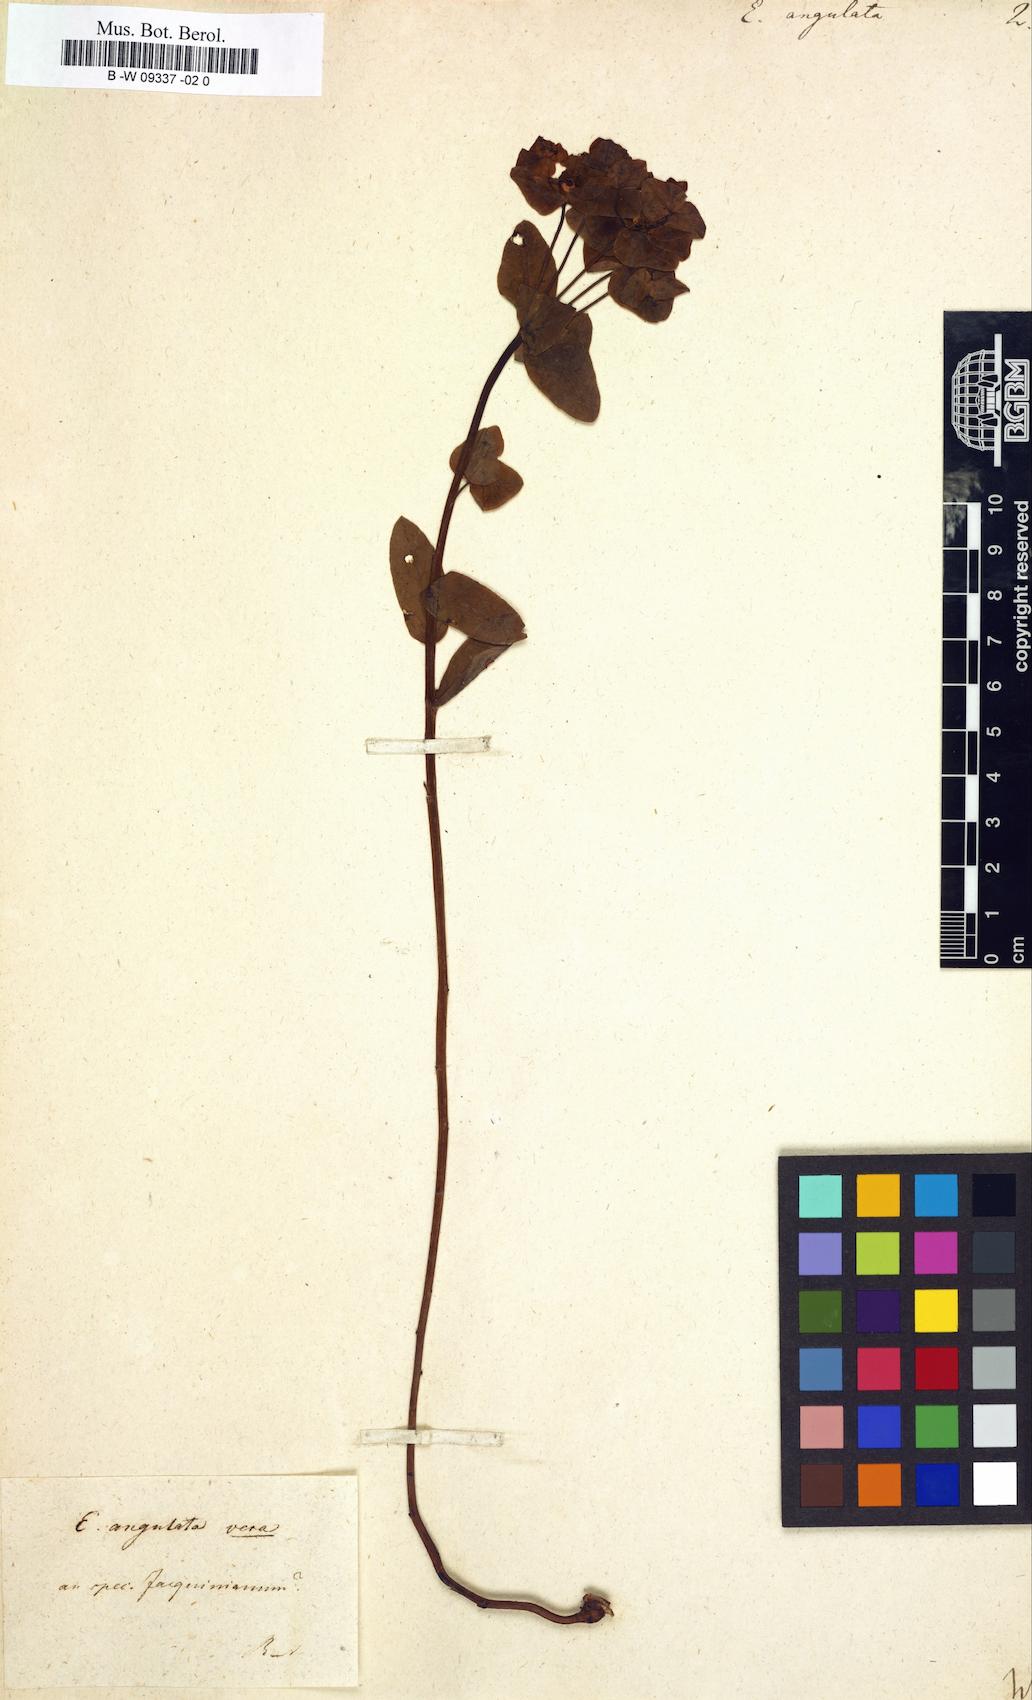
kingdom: Plantae
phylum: Tracheophyta
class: Magnoliopsida
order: Malpighiales
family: Euphorbiaceae
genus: Euphorbia
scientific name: Euphorbia angulata
